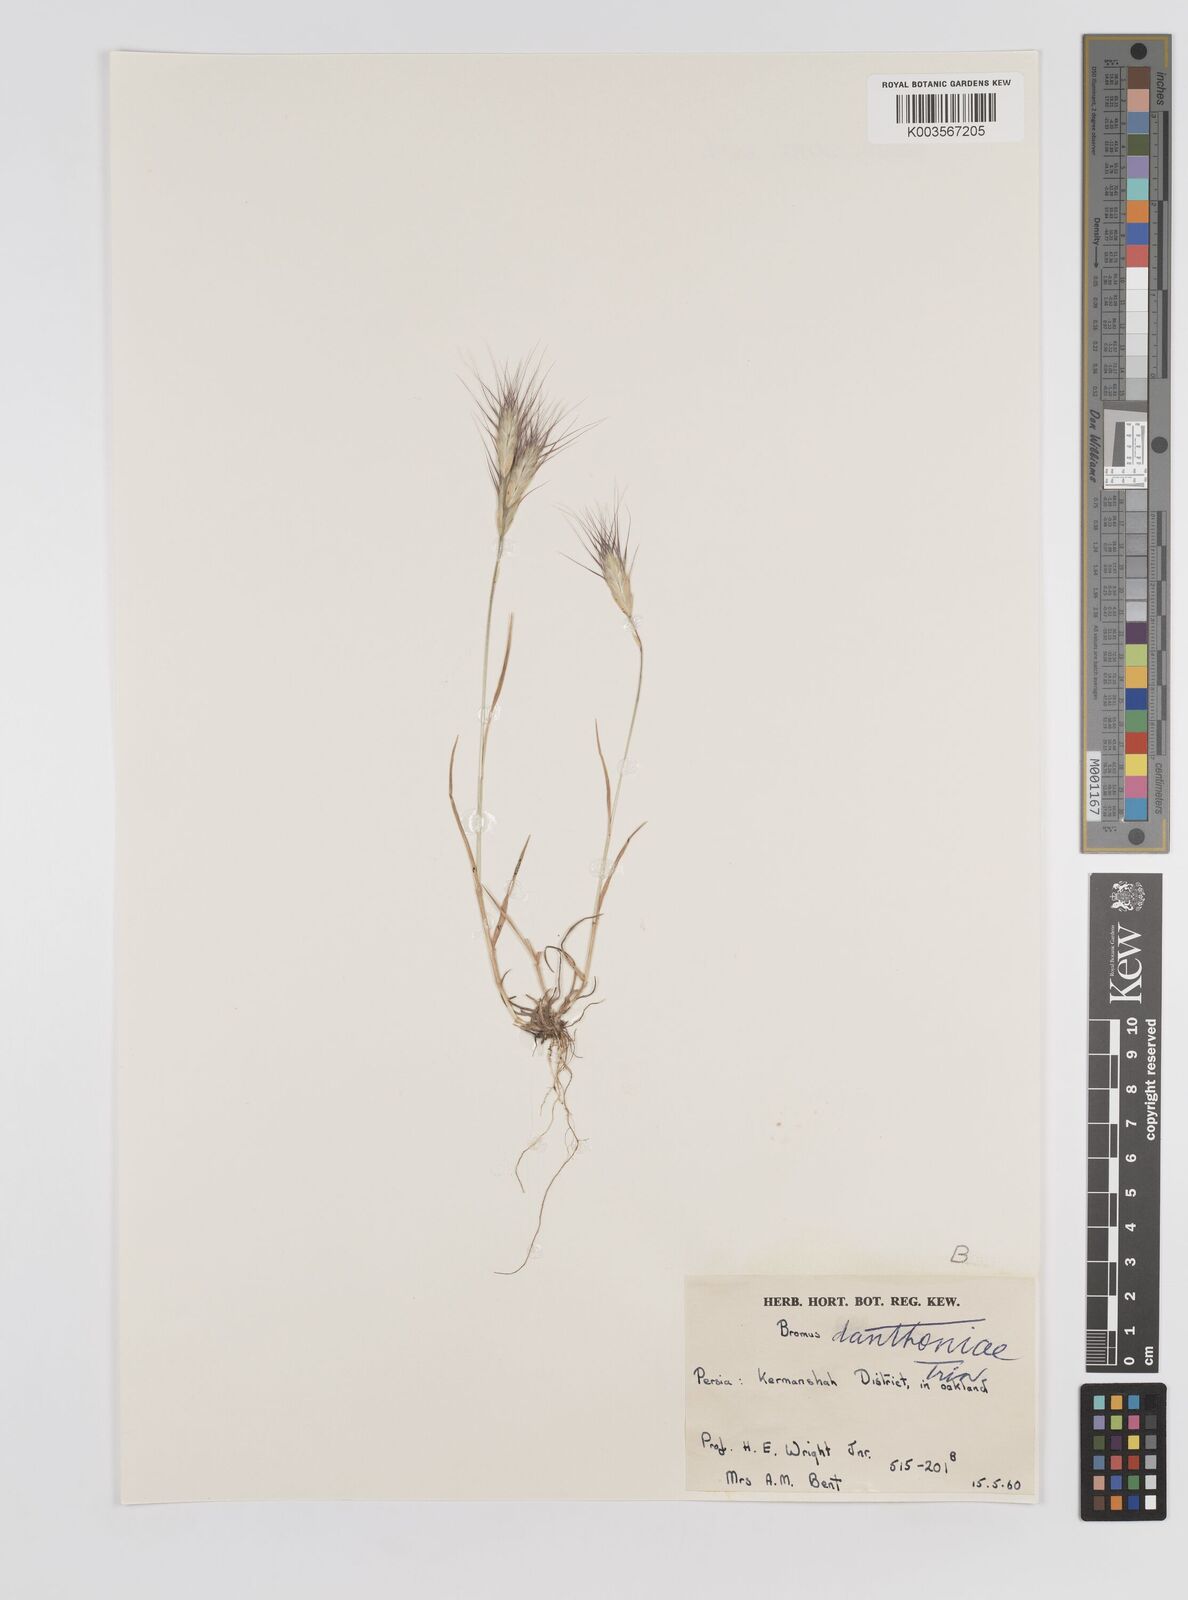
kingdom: Plantae
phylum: Tracheophyta
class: Liliopsida
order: Poales
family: Poaceae
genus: Bromus
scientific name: Bromus danthoniae
